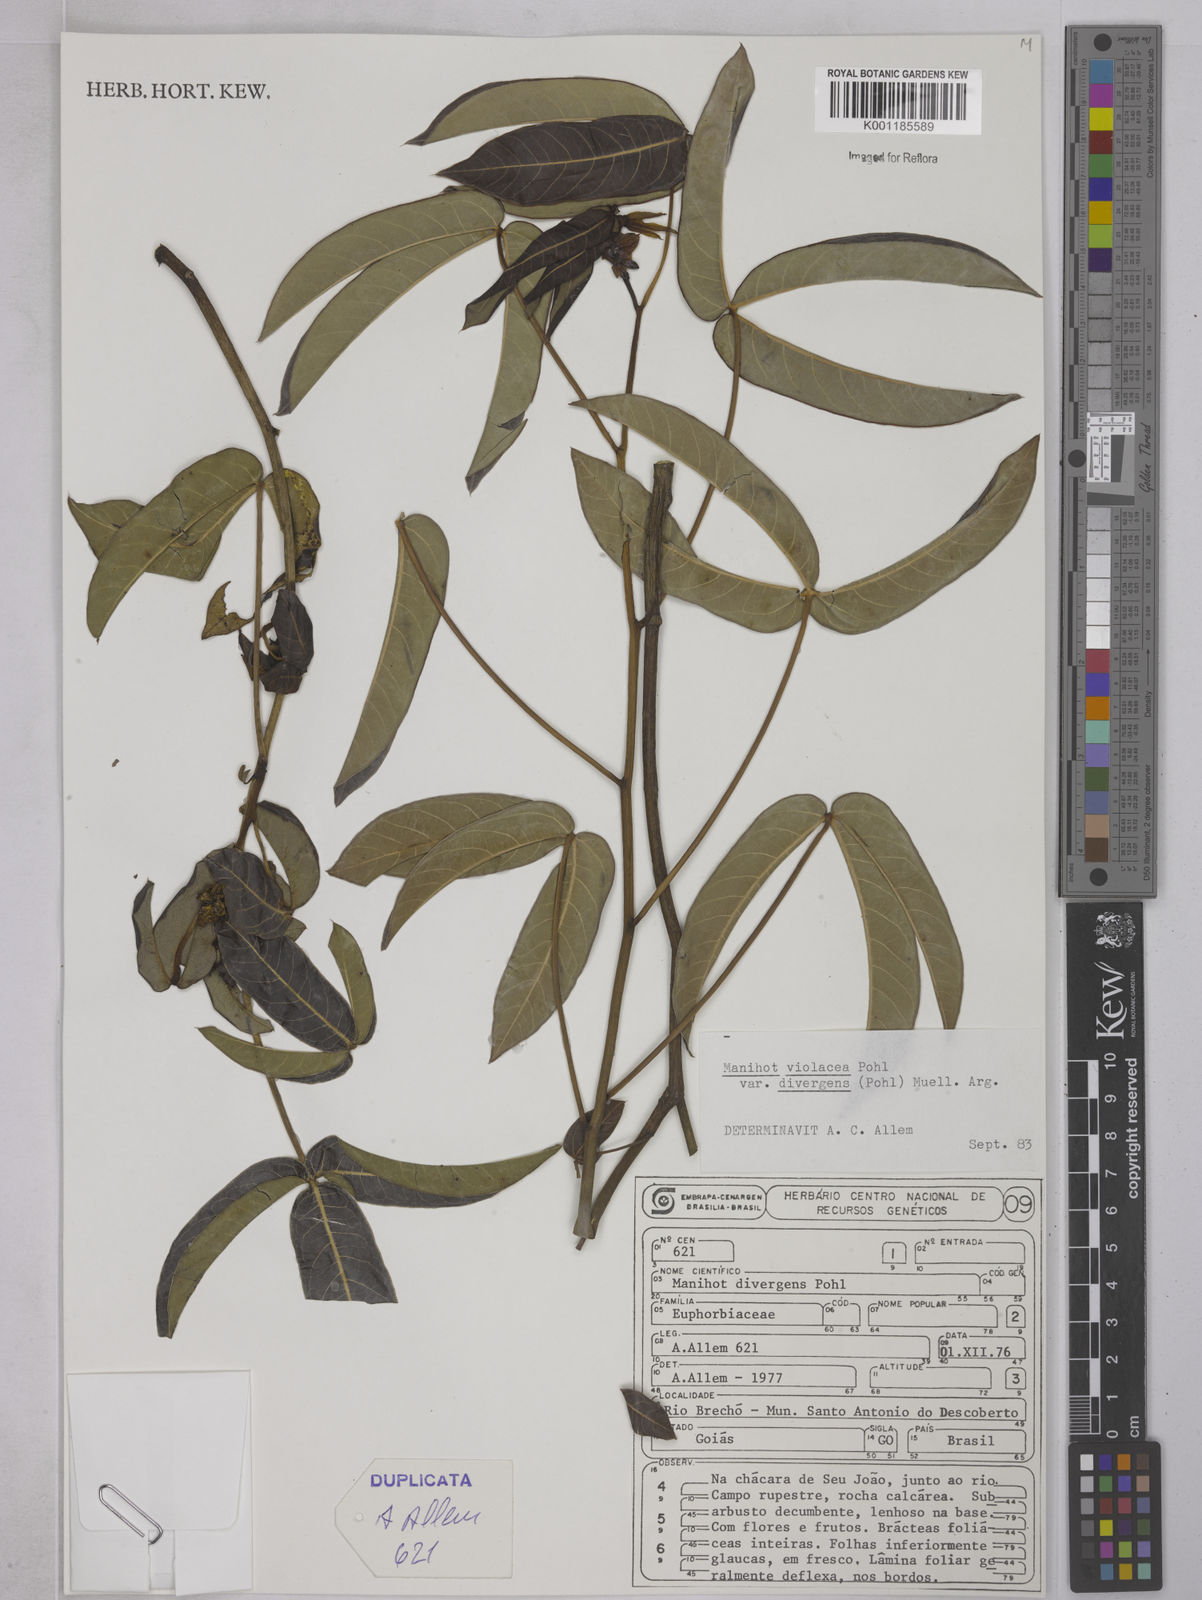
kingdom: Plantae
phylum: Tracheophyta
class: Magnoliopsida
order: Malpighiales
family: Euphorbiaceae
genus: Manihot
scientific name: Manihot divergens
